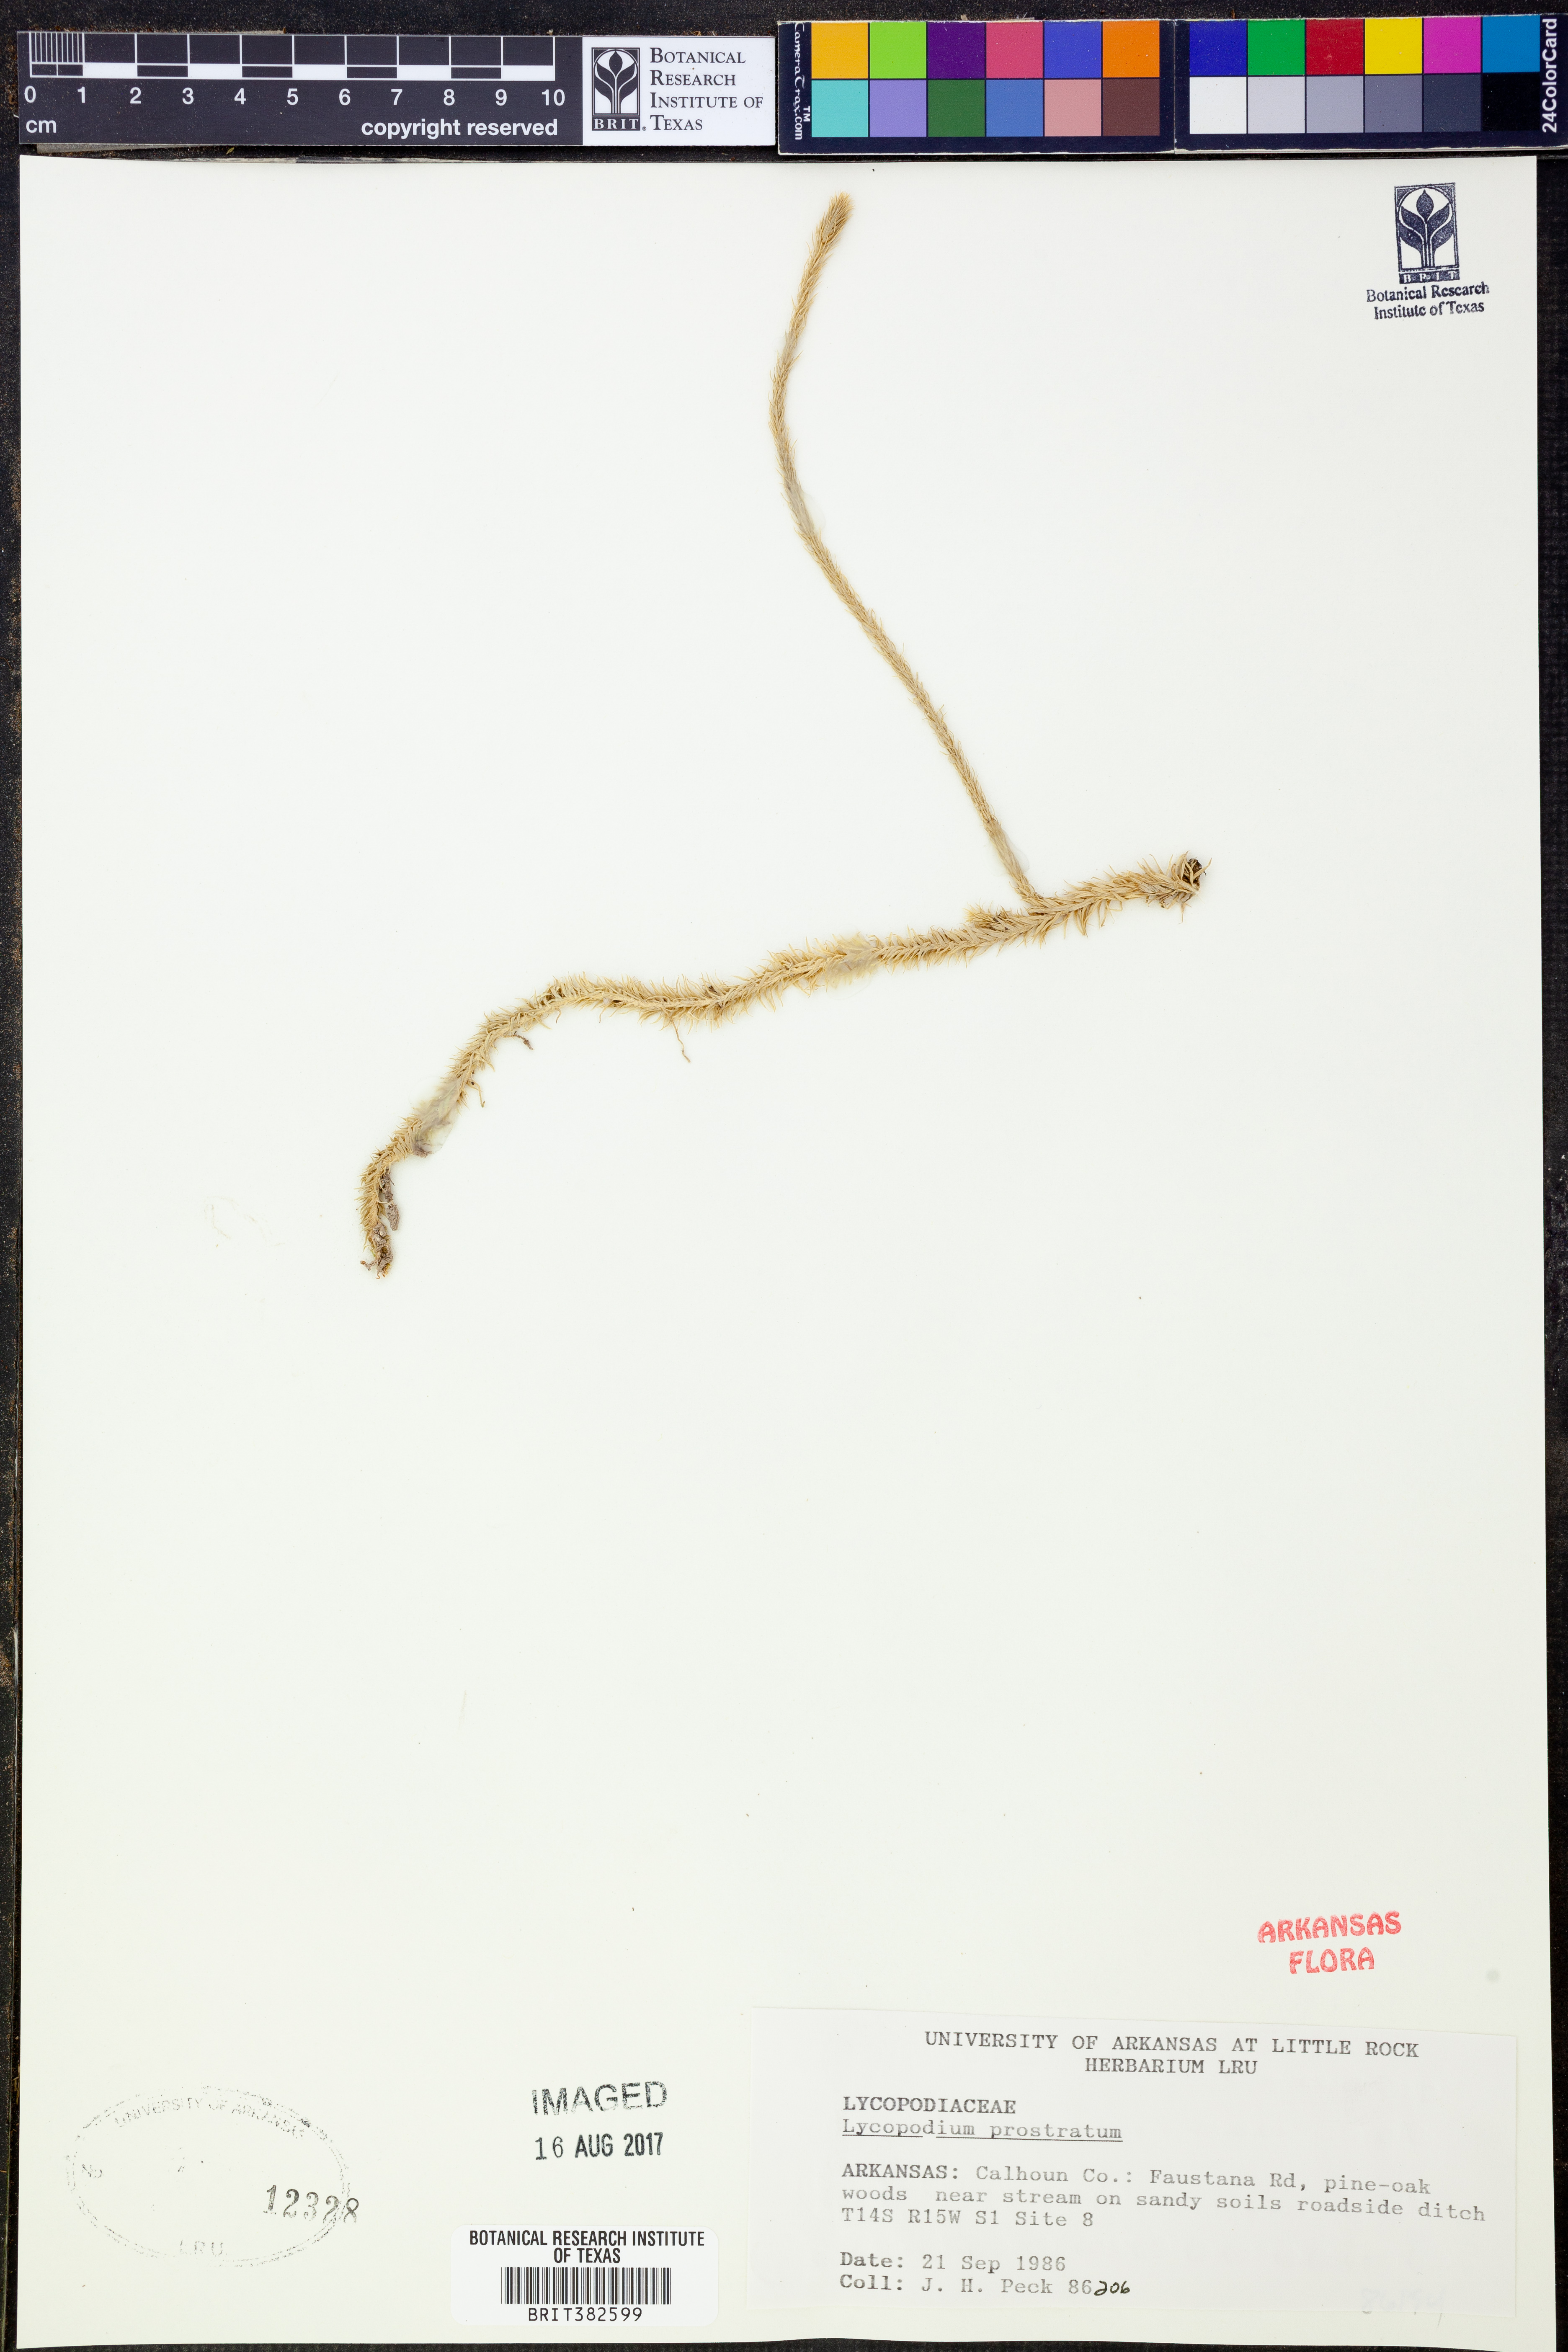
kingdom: Plantae
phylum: Tracheophyta
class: Lycopodiopsida
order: Lycopodiales
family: Lycopodiaceae
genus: Lycopodiella
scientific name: Lycopodiella prostrata
